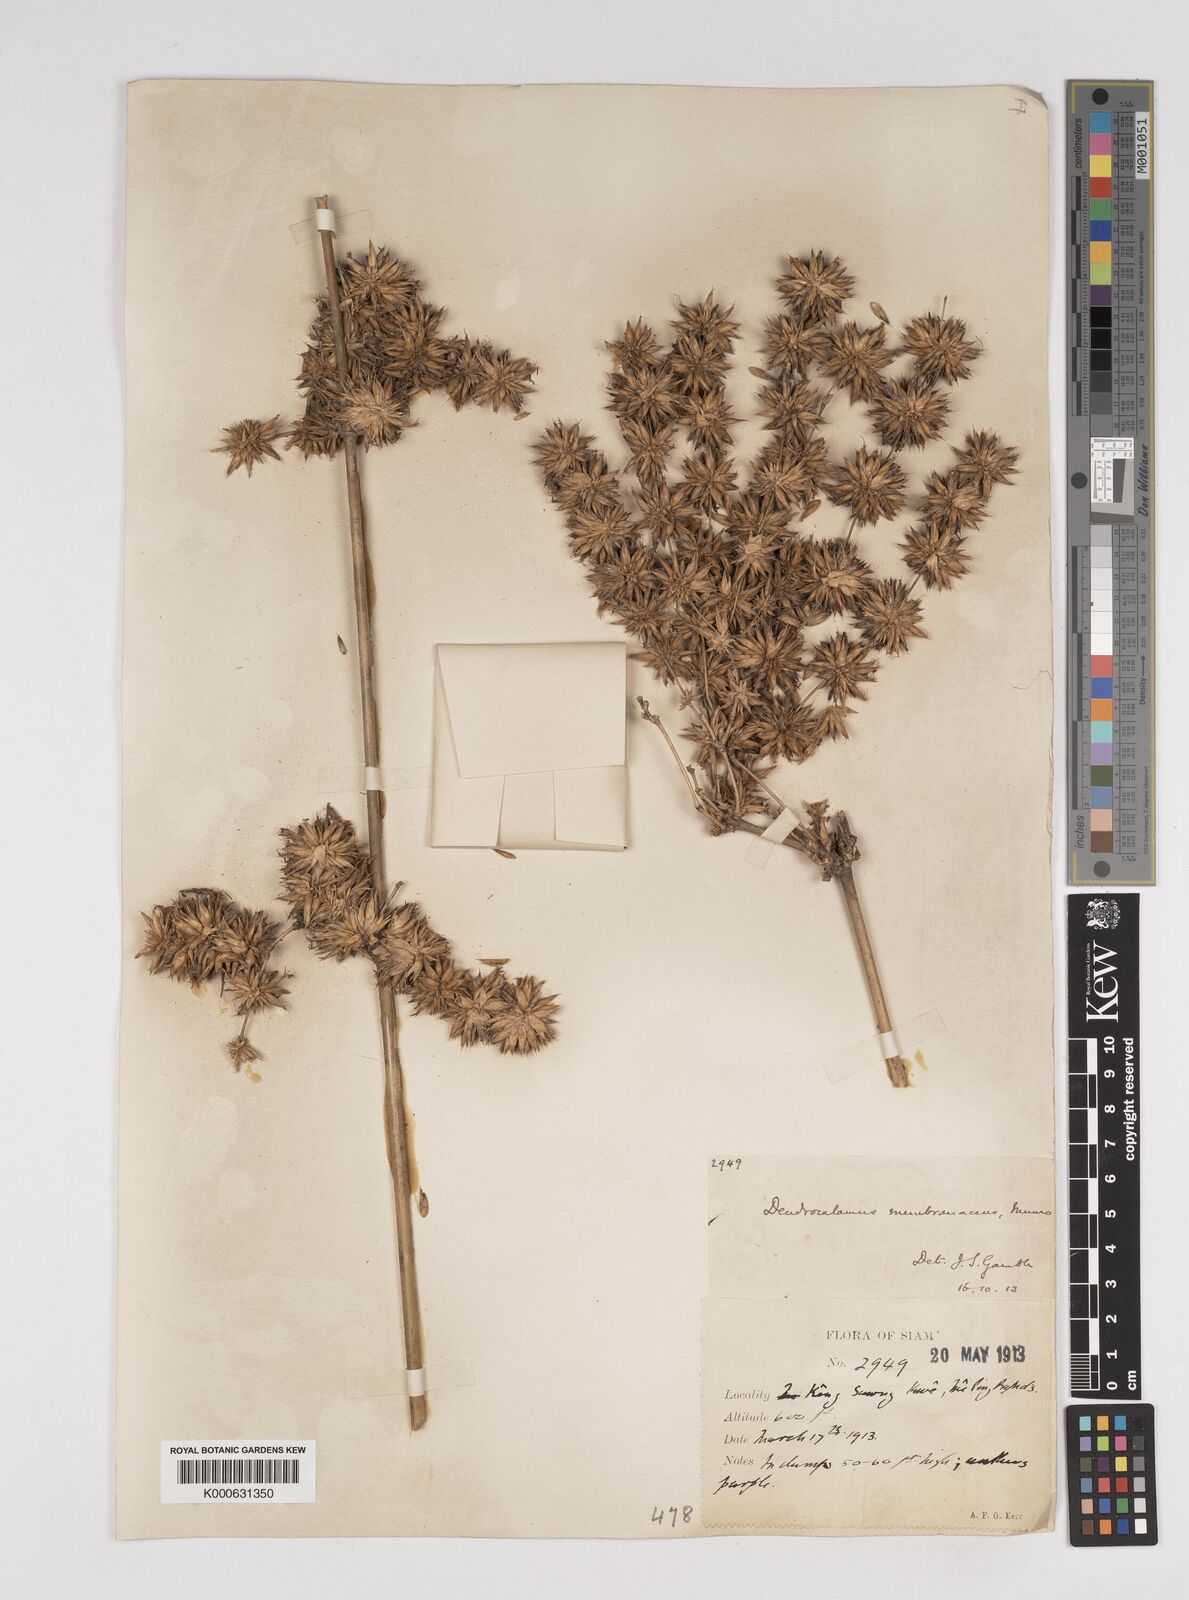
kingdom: Plantae
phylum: Tracheophyta
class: Liliopsida
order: Poales
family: Poaceae
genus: Dendrocalamus
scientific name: Dendrocalamus membranaceus
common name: White bamboo
